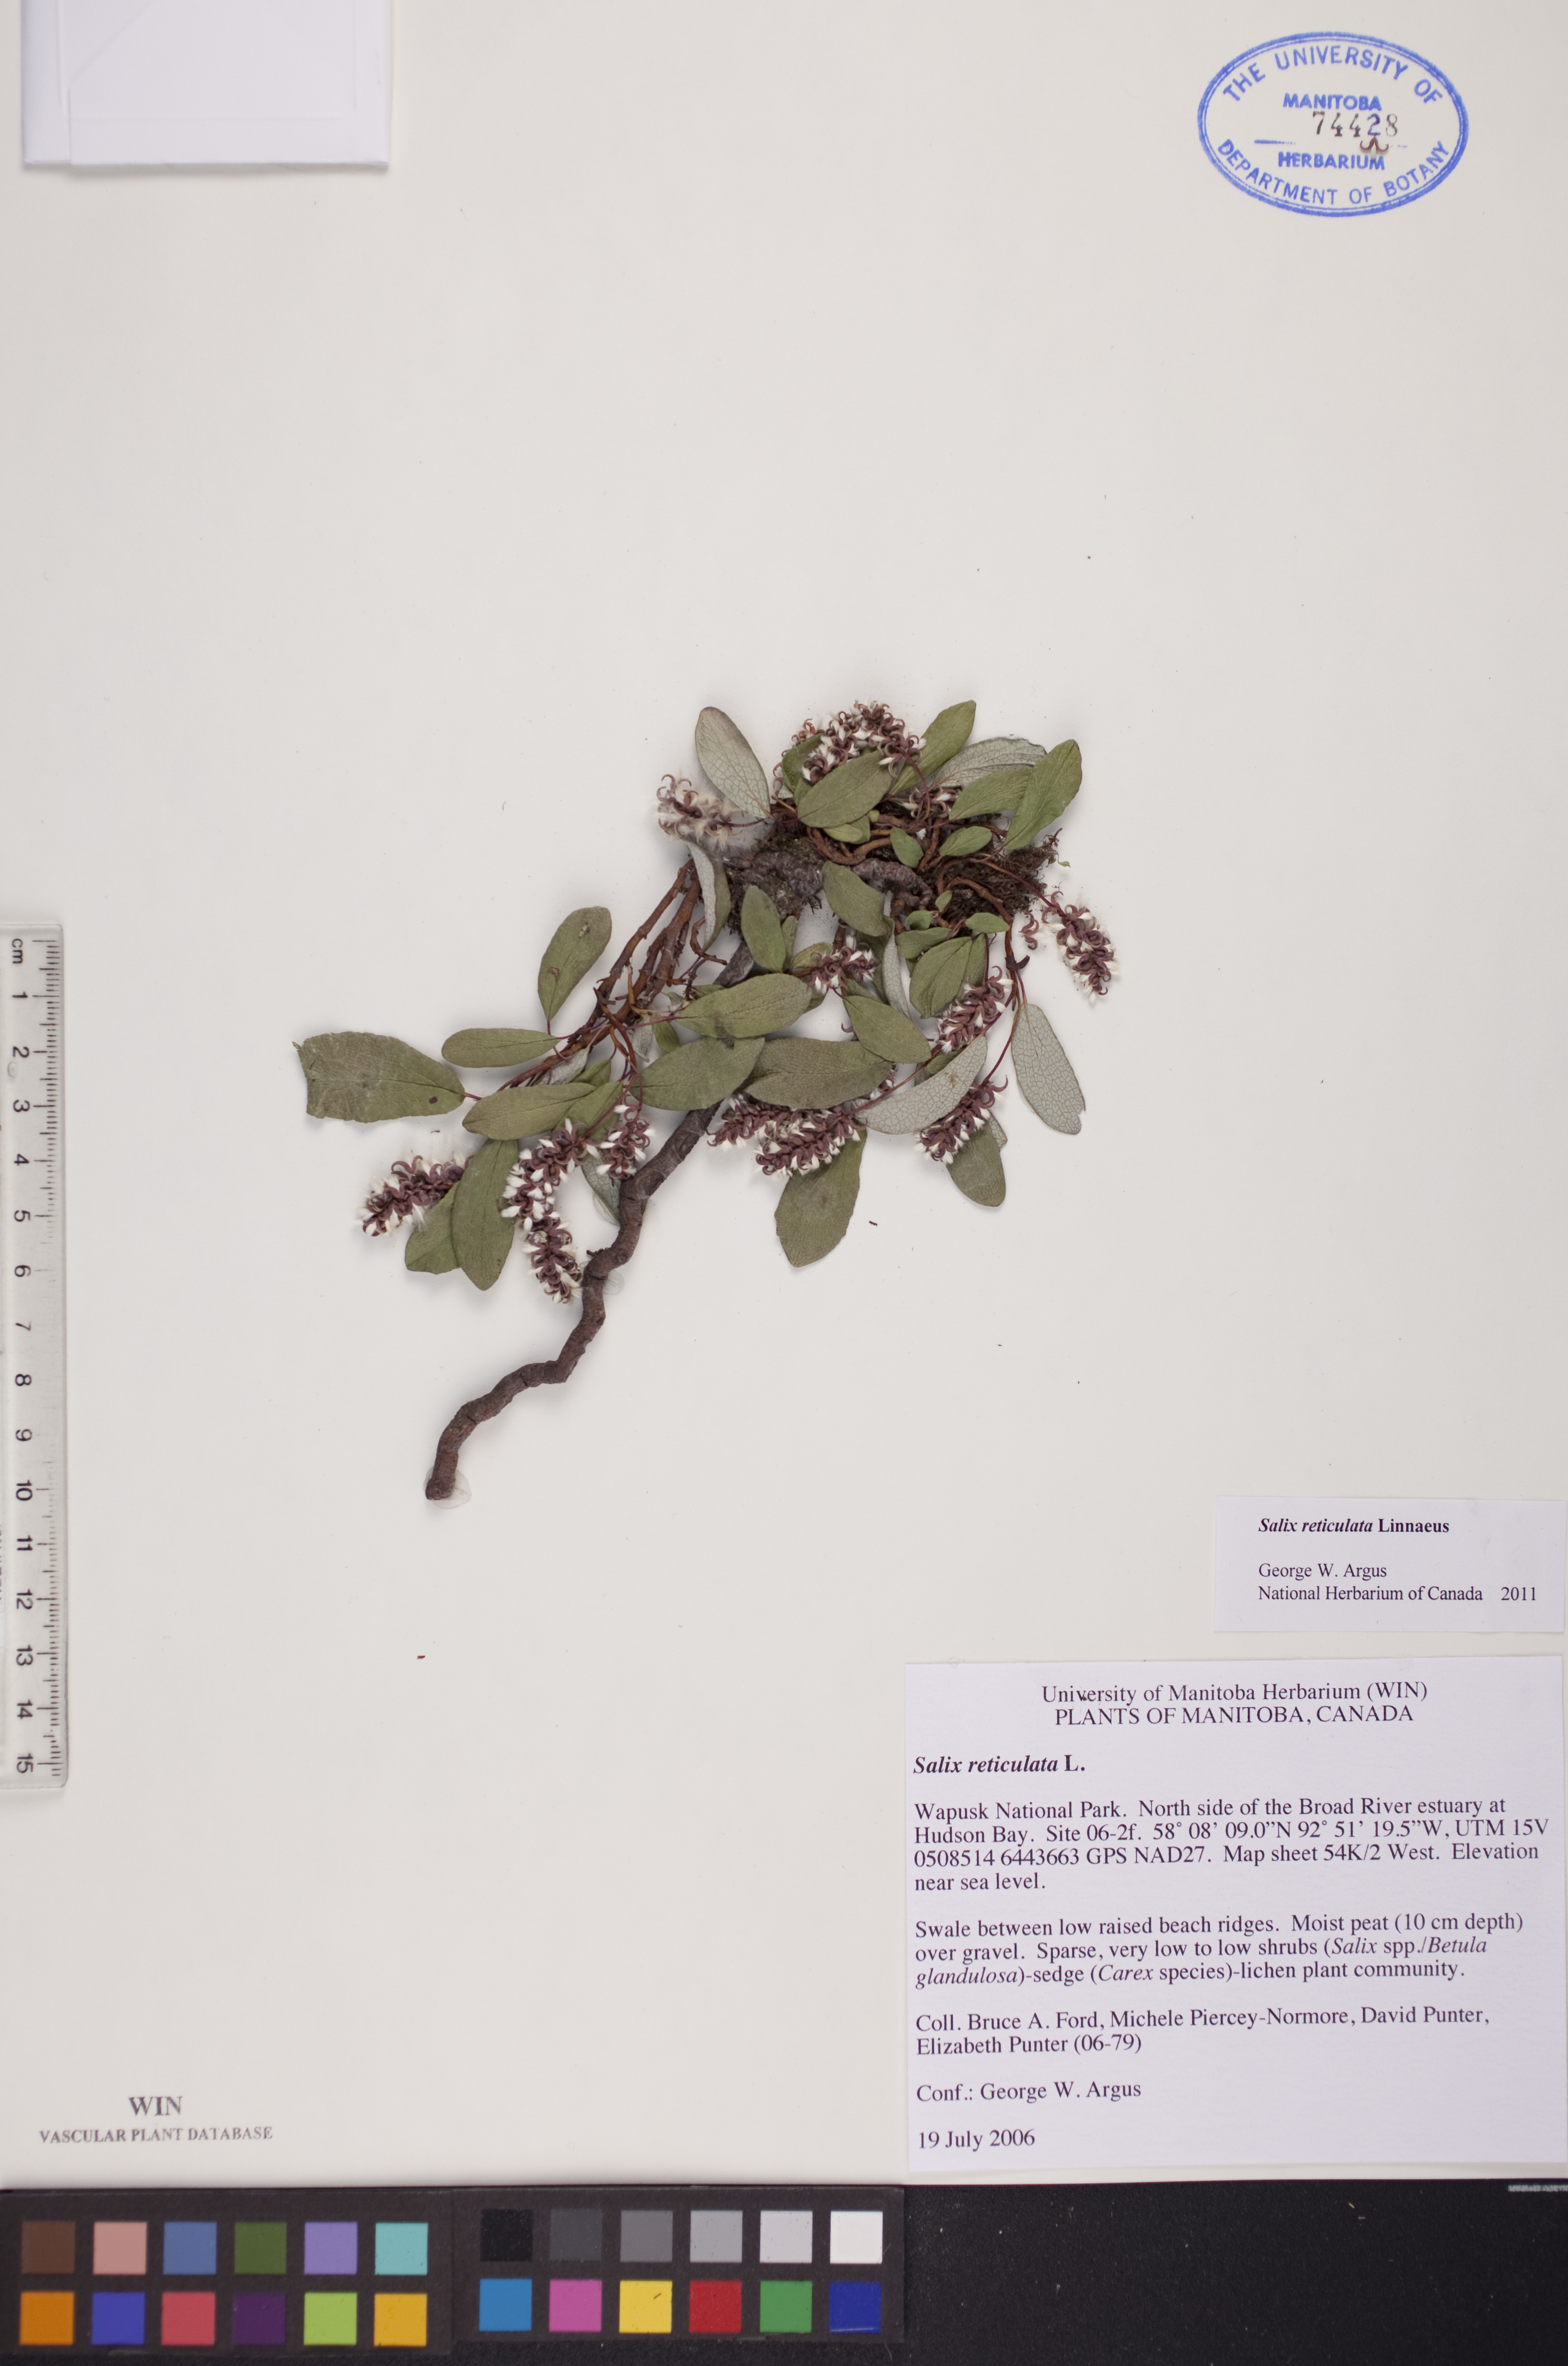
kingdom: Plantae
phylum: Tracheophyta
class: Magnoliopsida
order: Malpighiales
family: Salicaceae
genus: Salix
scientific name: Salix reticulata
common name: Net-leaved willow
